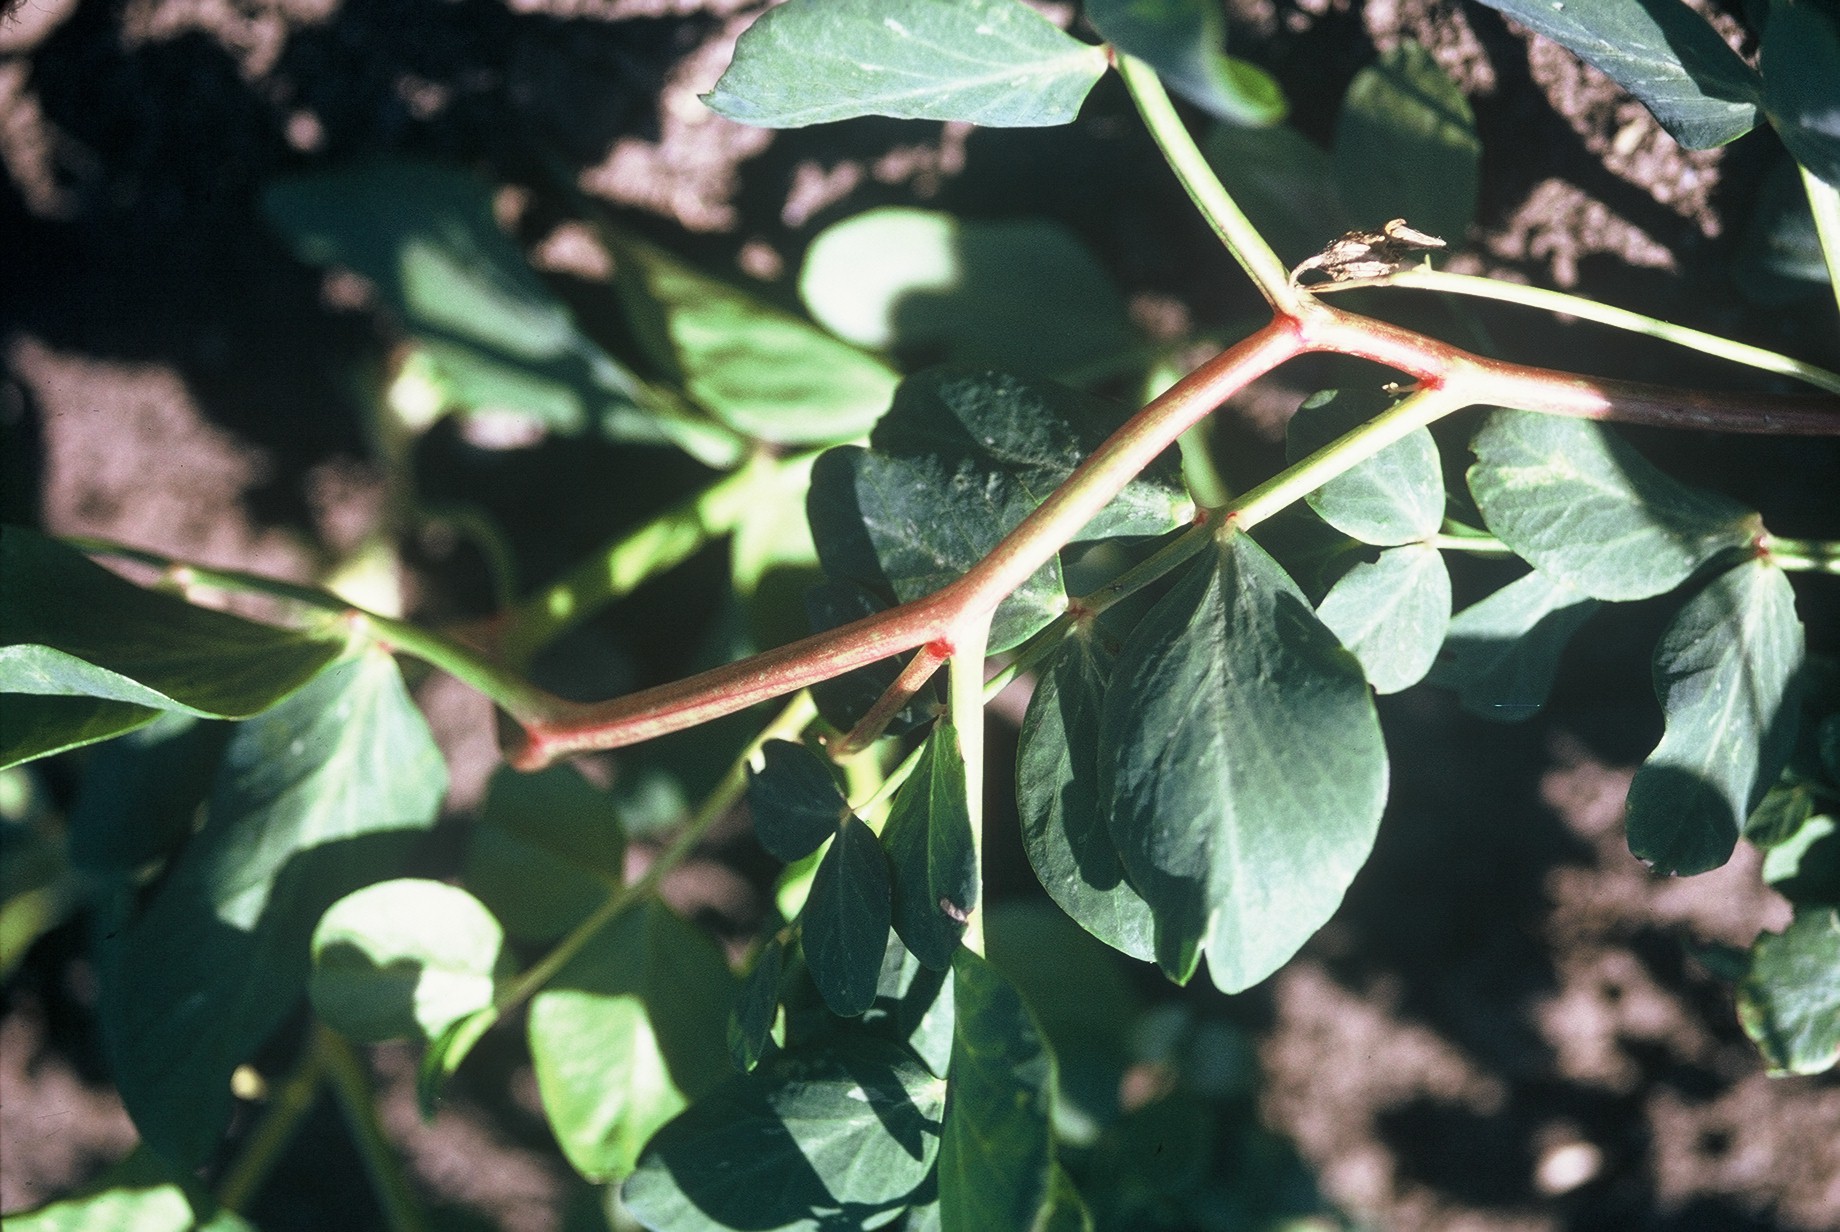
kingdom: Plantae
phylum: Tracheophyta
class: Magnoliopsida
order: Fabales
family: Fabaceae
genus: Lathyrus
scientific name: Lathyrus oleraceus
